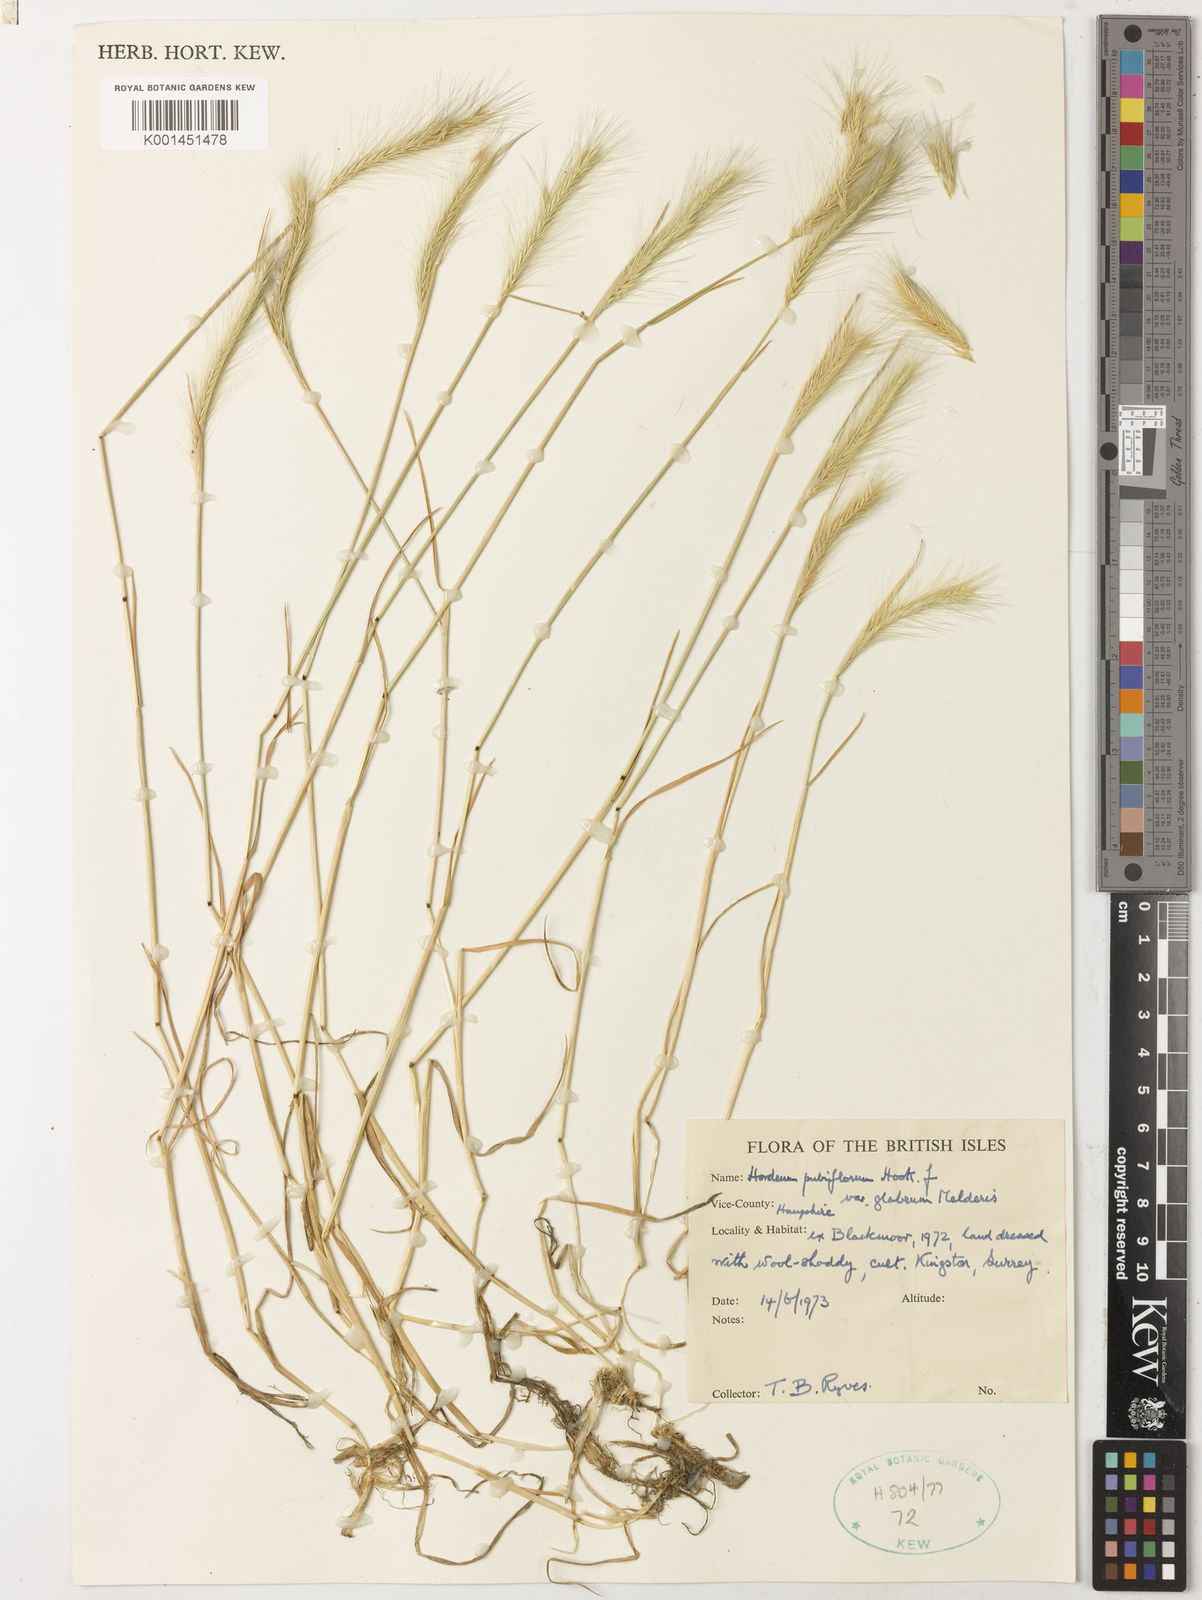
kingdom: Plantae
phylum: Tracheophyta
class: Liliopsida
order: Poales
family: Poaceae
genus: Hordeum
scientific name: Hordeum pubiflorum
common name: Antarctic barley
